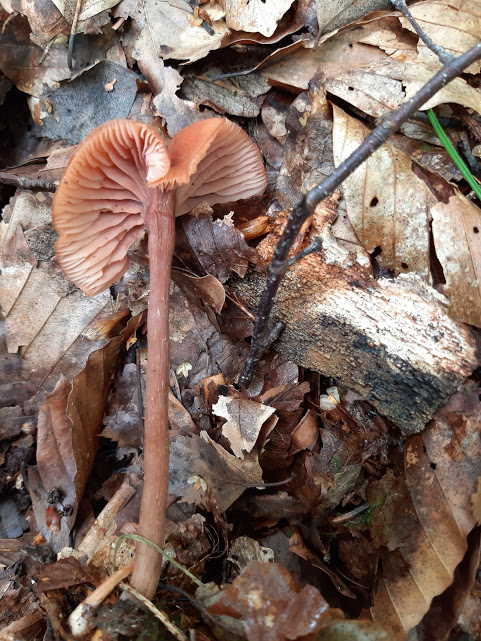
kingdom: Fungi
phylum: Basidiomycota
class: Agaricomycetes
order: Agaricales
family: Hydnangiaceae
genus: Laccaria
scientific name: Laccaria
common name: ametysthat
